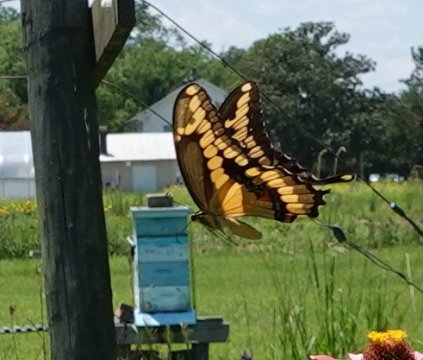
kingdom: Animalia
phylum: Arthropoda
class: Insecta
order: Lepidoptera
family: Papilionidae
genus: Papilio
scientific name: Papilio cresphontes
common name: Eastern Giant Swallowtail
